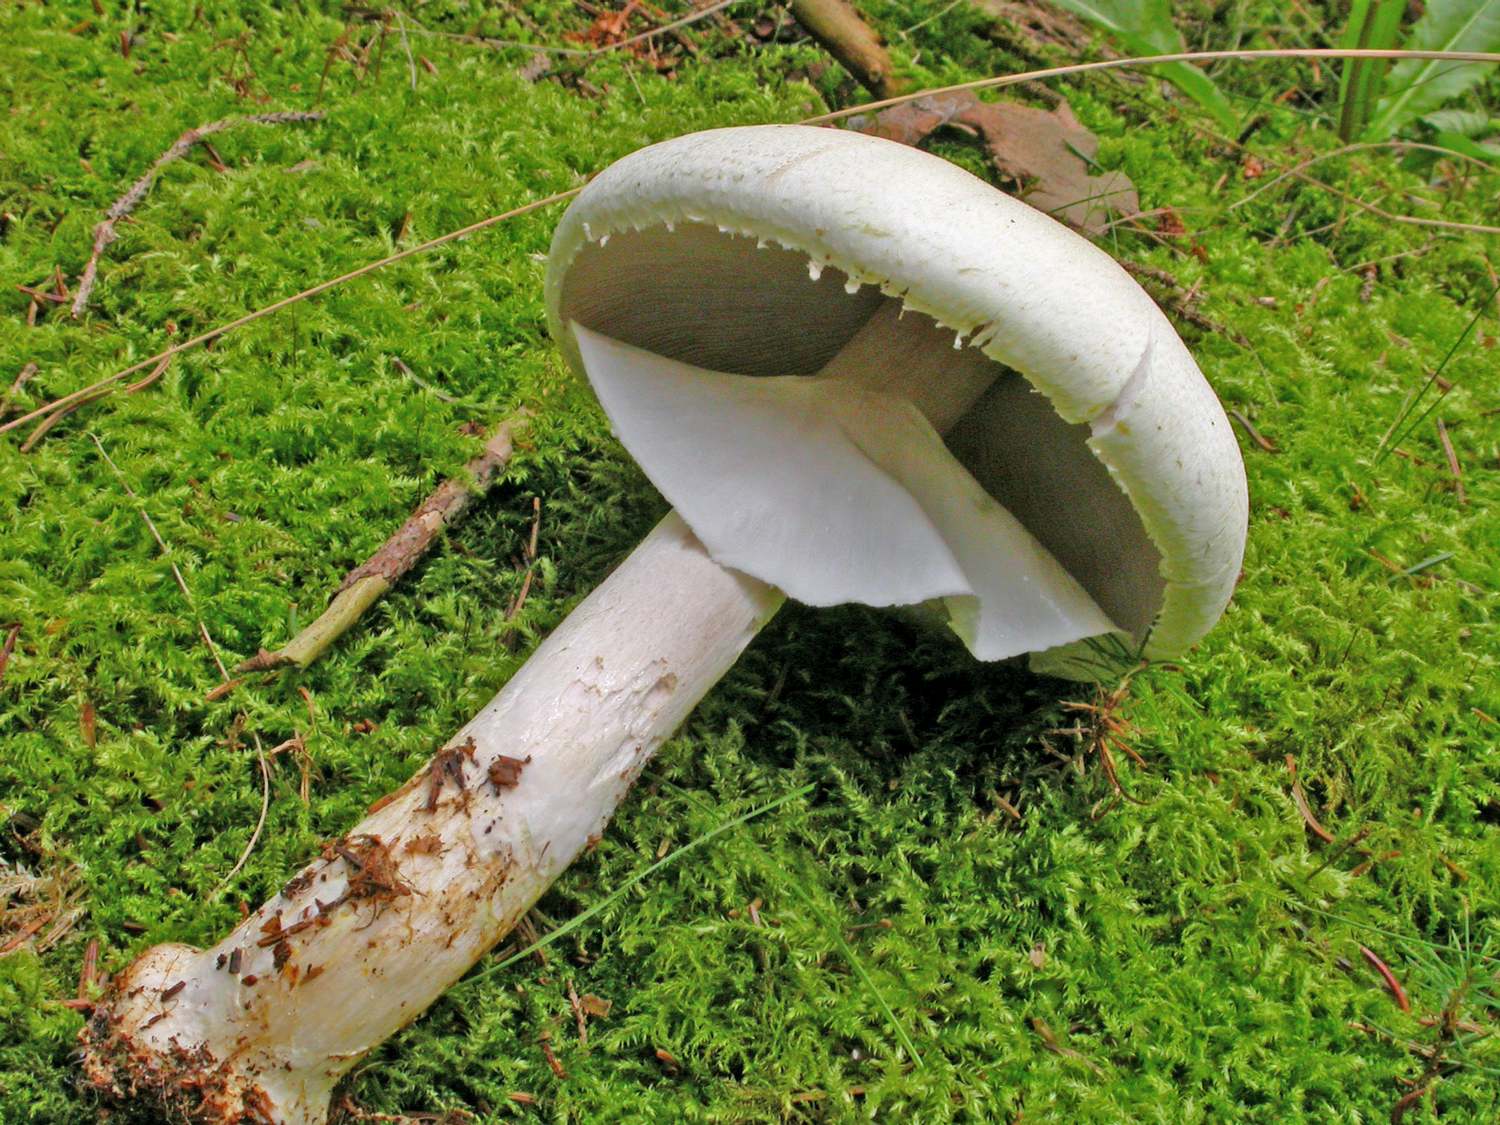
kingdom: Fungi
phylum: Basidiomycota
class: Agaricomycetes
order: Agaricales
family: Agaricaceae
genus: Agaricus
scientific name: Agaricus sylvicola
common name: gulhvid champignon
